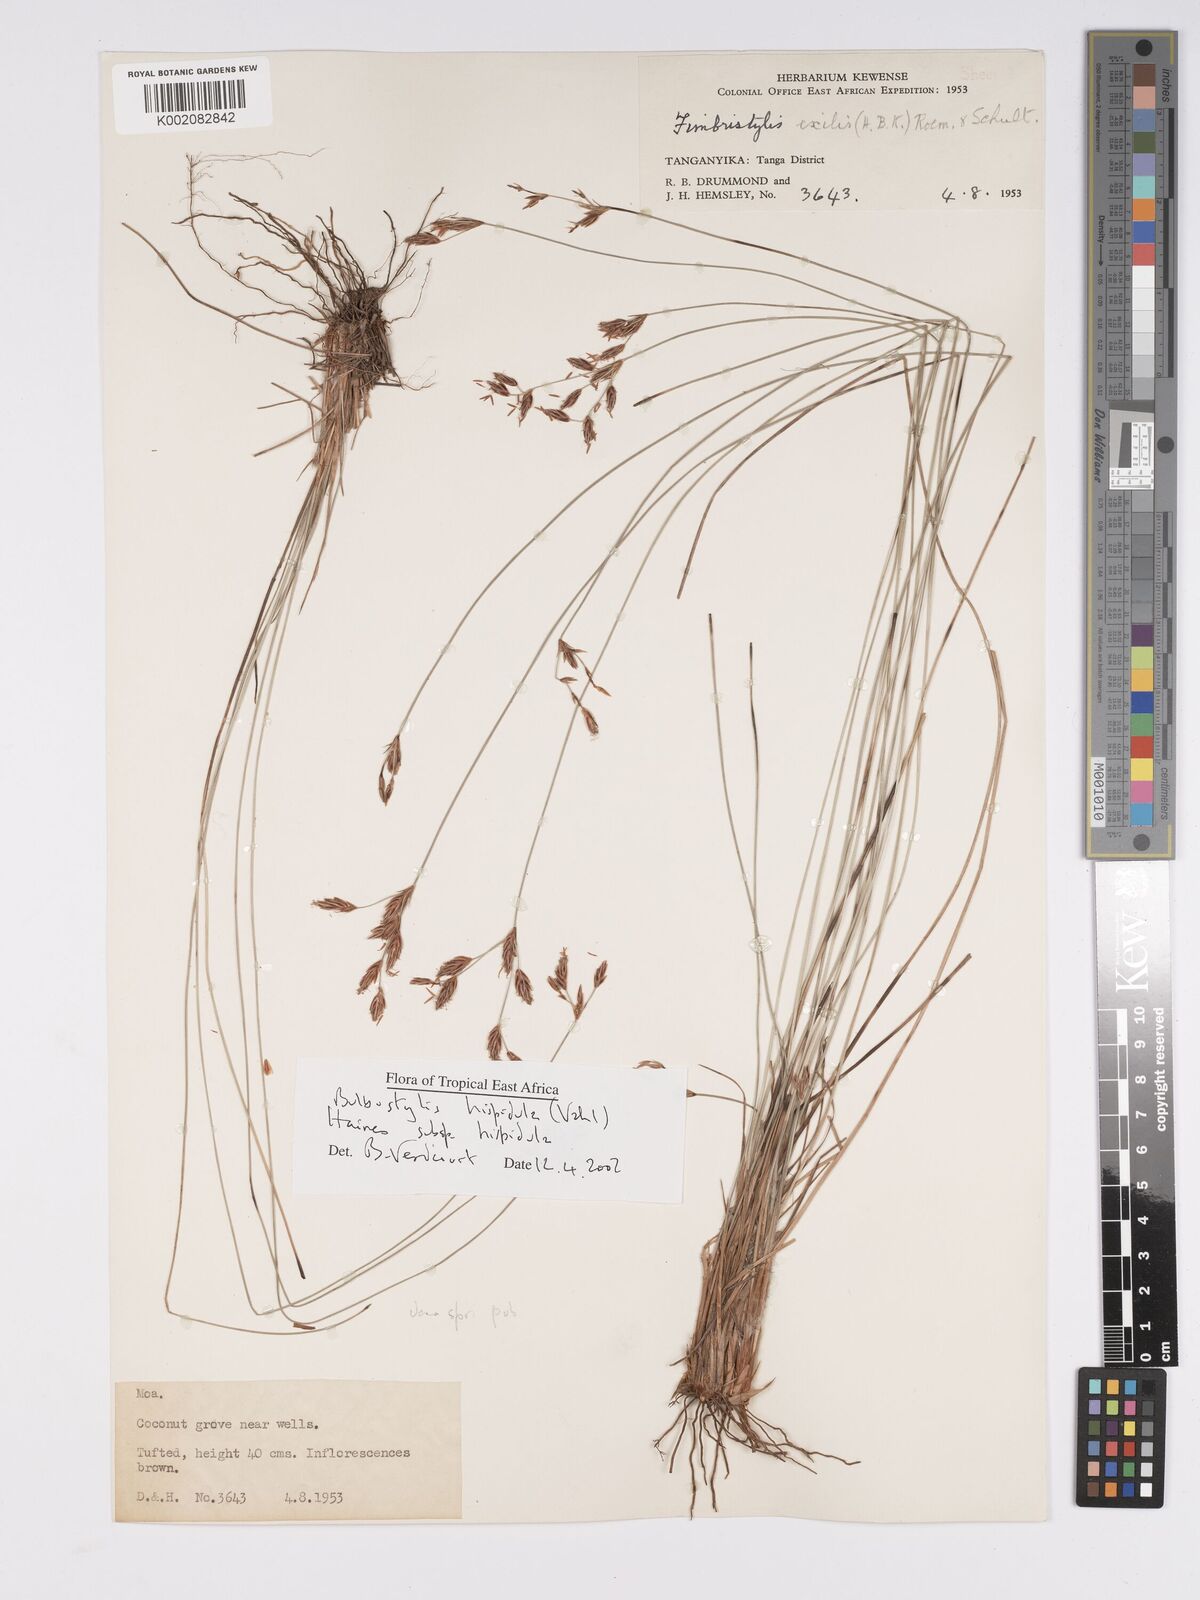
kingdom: Plantae
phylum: Tracheophyta
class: Liliopsida
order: Poales
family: Cyperaceae
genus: Bulbostylis
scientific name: Bulbostylis hispidula
